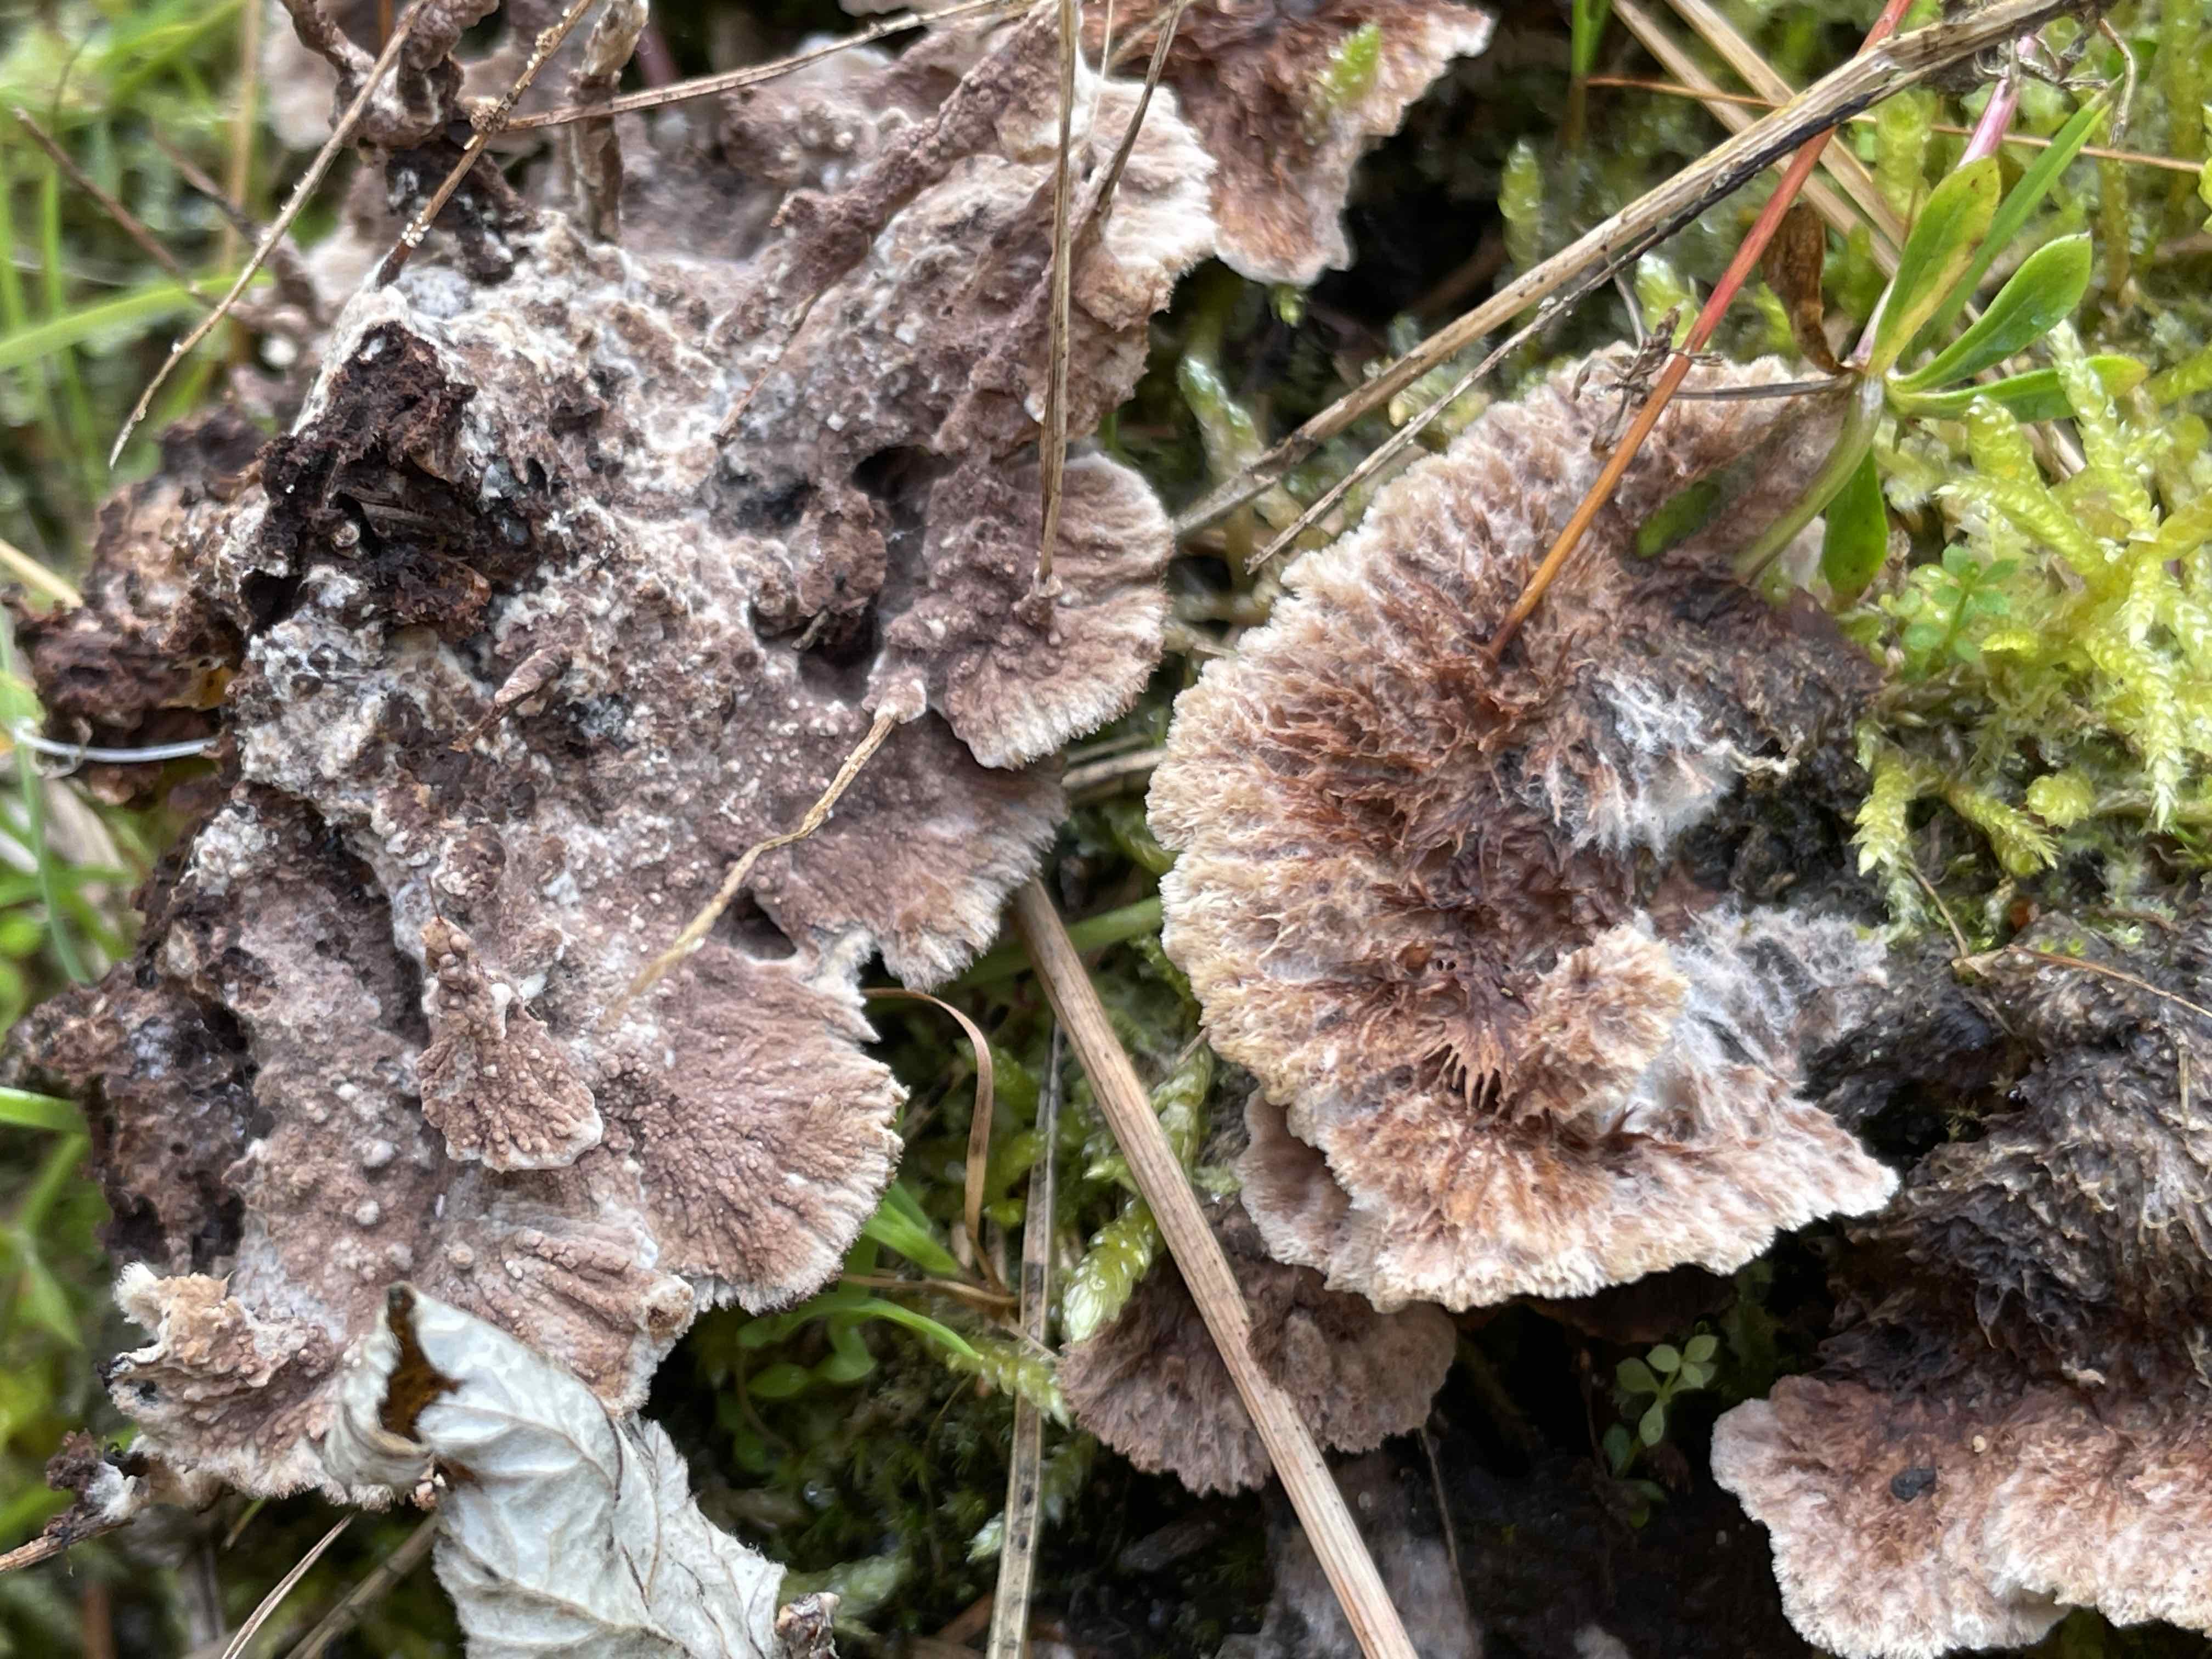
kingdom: Fungi
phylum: Basidiomycota
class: Agaricomycetes
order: Thelephorales
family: Thelephoraceae
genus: Thelephora
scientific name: Thelephora terrestris
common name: fliget frynsesvamp
